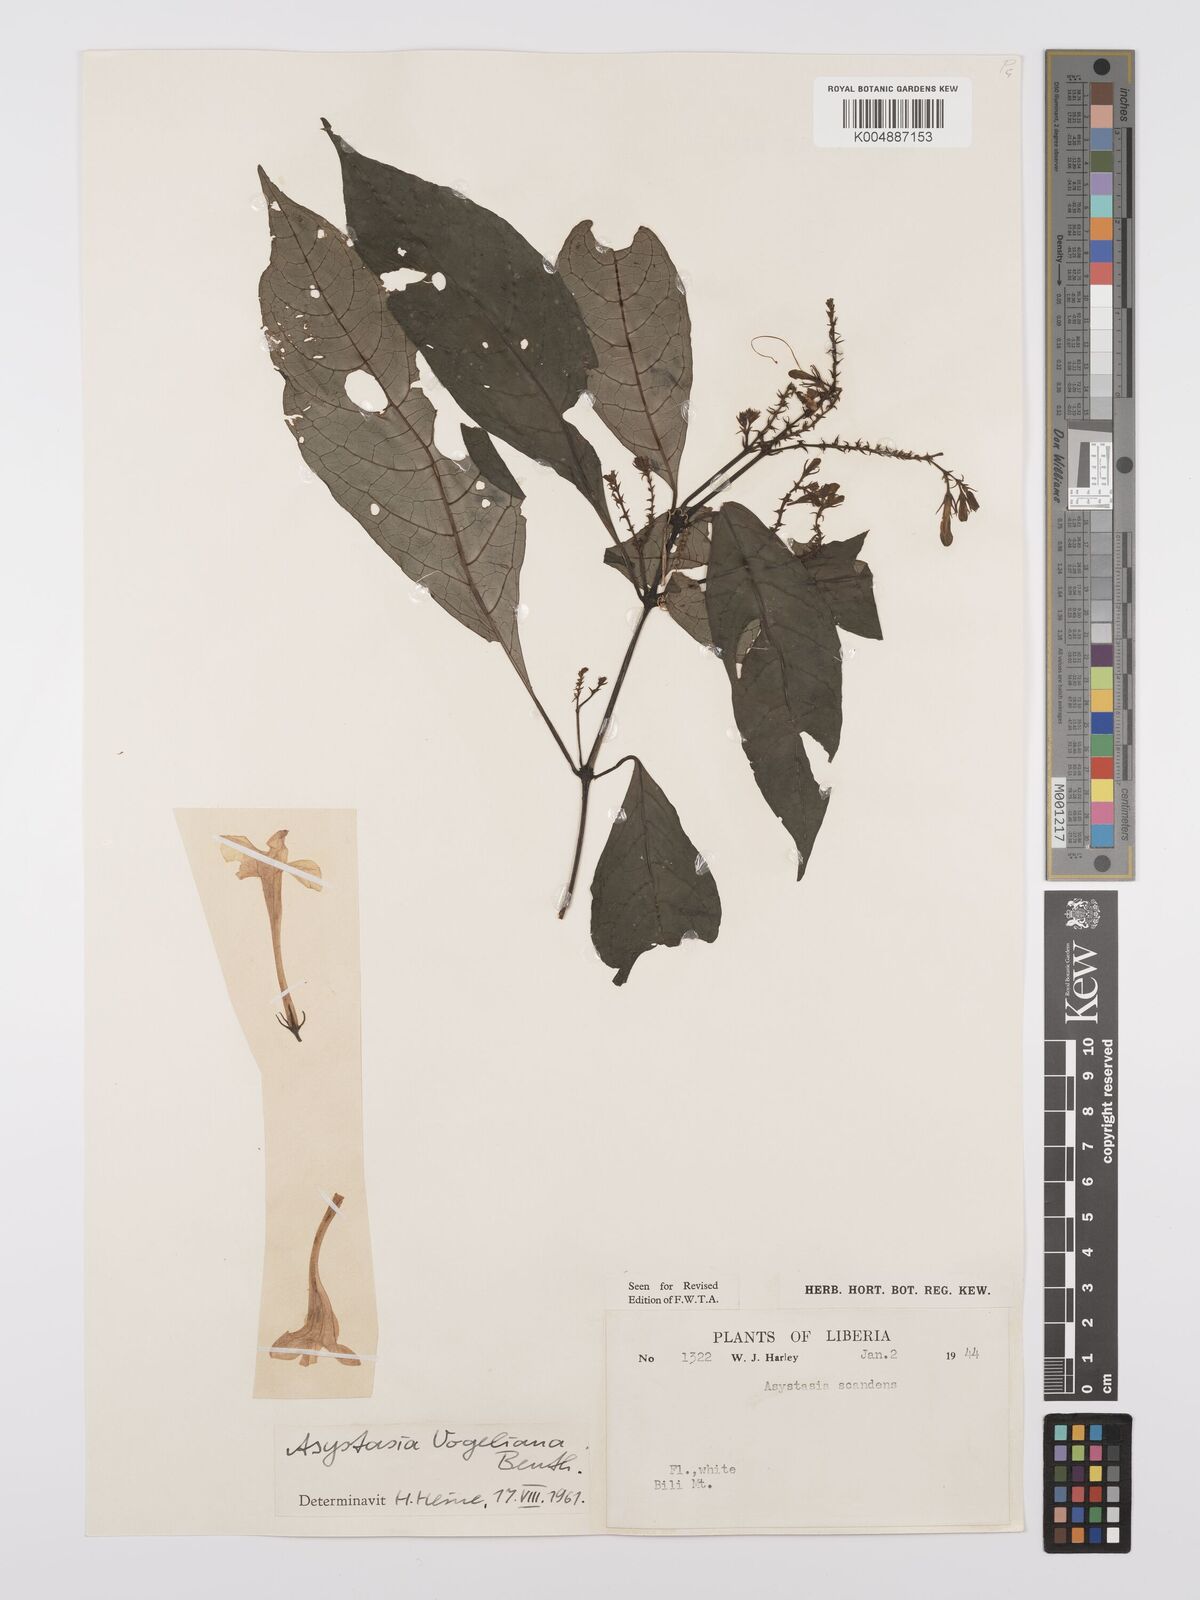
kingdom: Plantae
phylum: Tracheophyta
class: Magnoliopsida
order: Lamiales
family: Acanthaceae
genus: Asystasia
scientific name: Asystasia vogeliana
